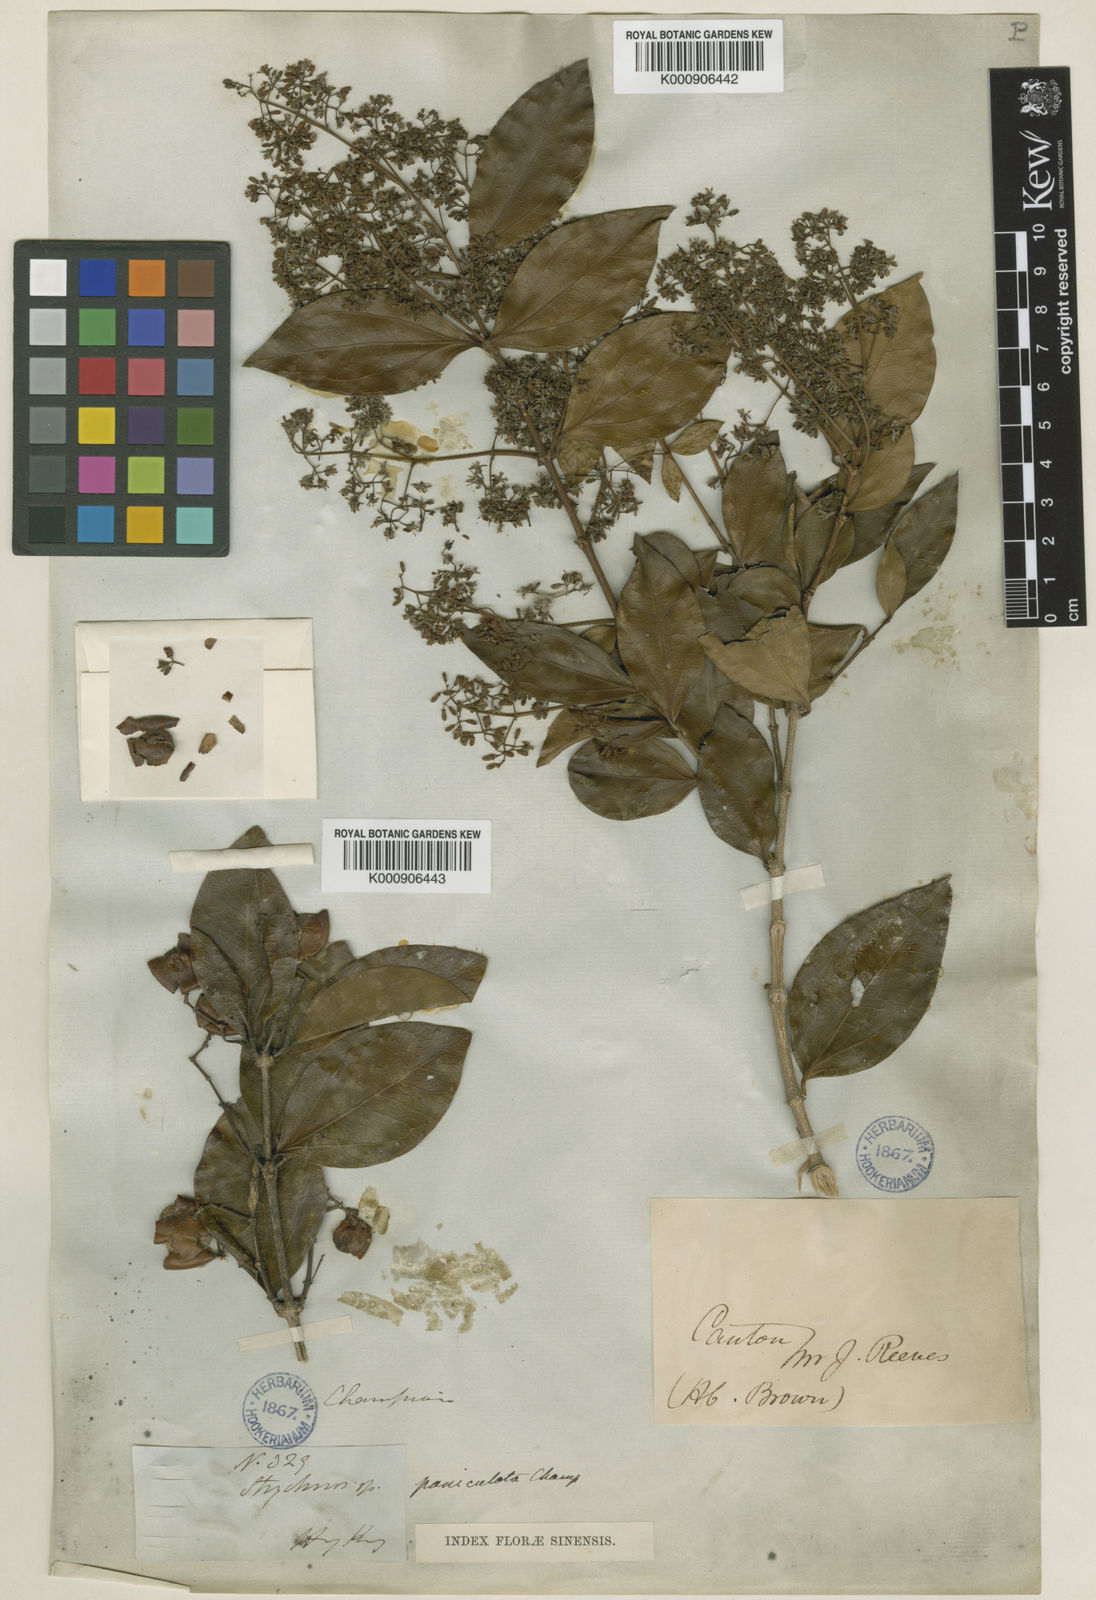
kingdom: Plantae
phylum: Tracheophyta
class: Magnoliopsida
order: Gentianales
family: Loganiaceae
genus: Strychnos
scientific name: Strychnos umbellata
